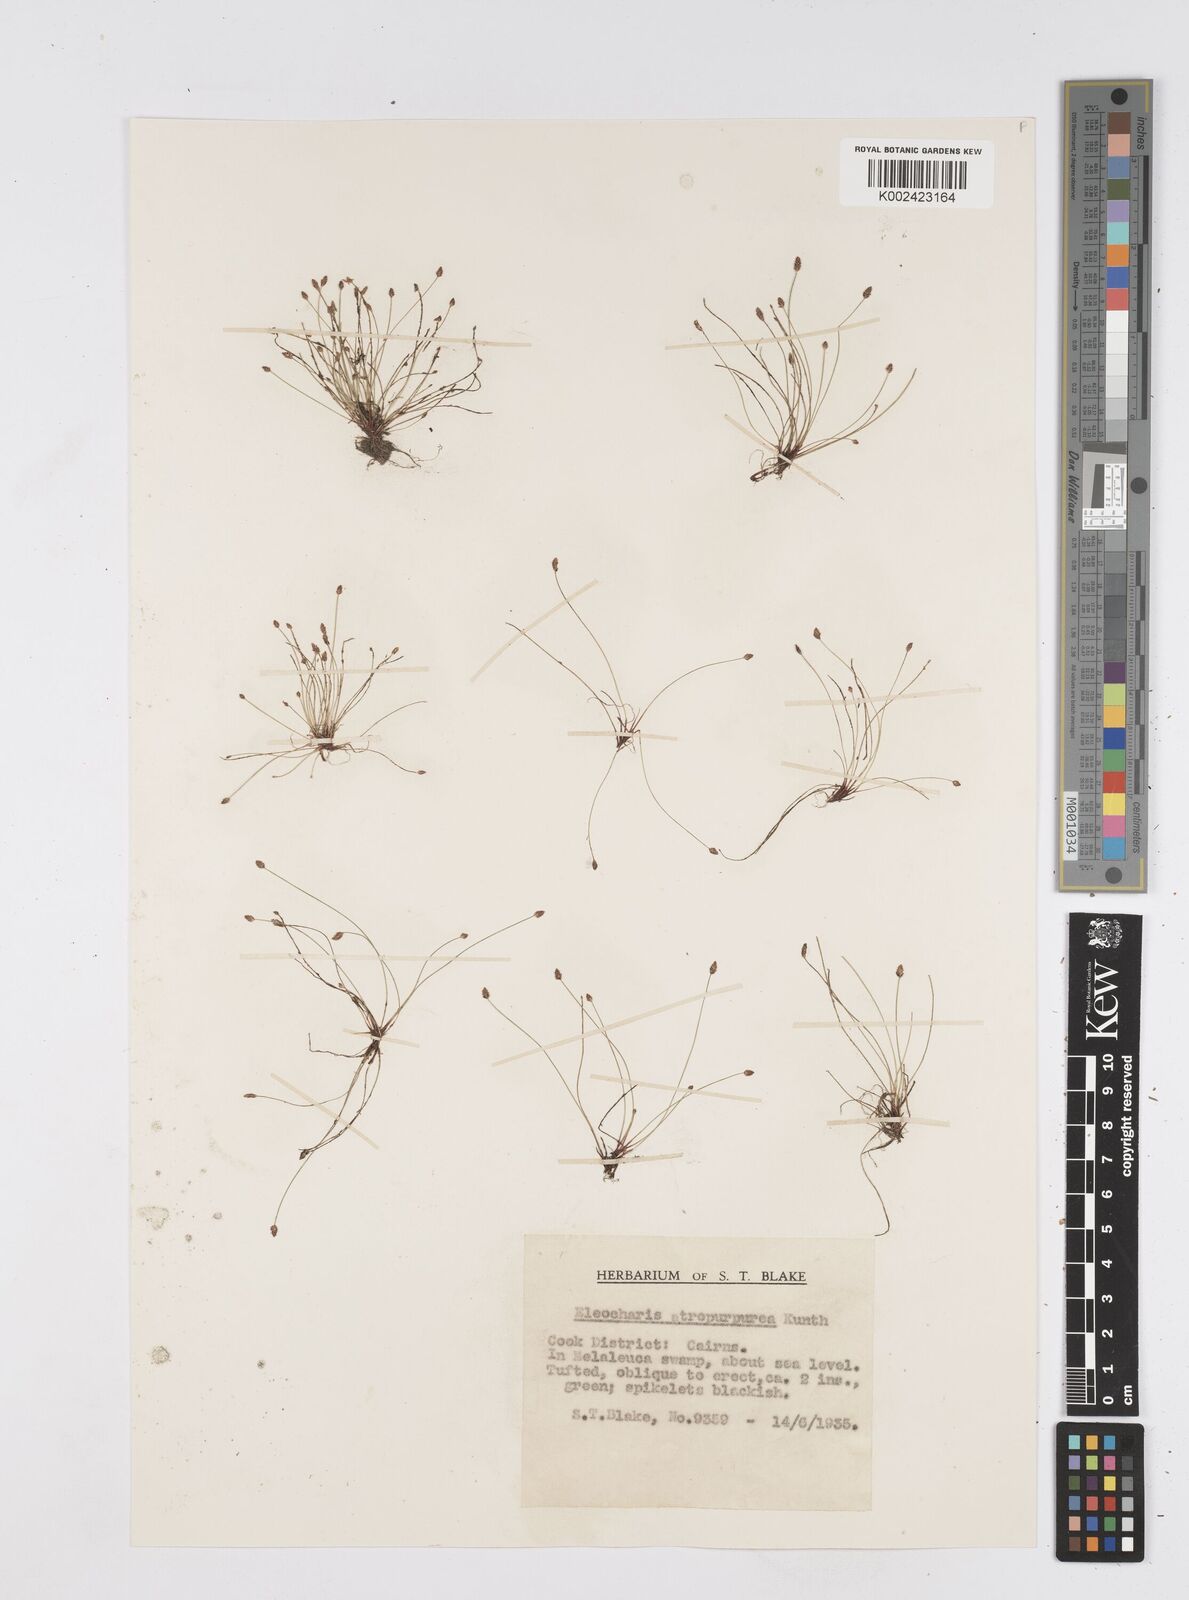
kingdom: Plantae
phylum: Tracheophyta
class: Liliopsida
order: Poales
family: Cyperaceae
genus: Eleocharis
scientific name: Eleocharis atropurpurea
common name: Purple spikerush
